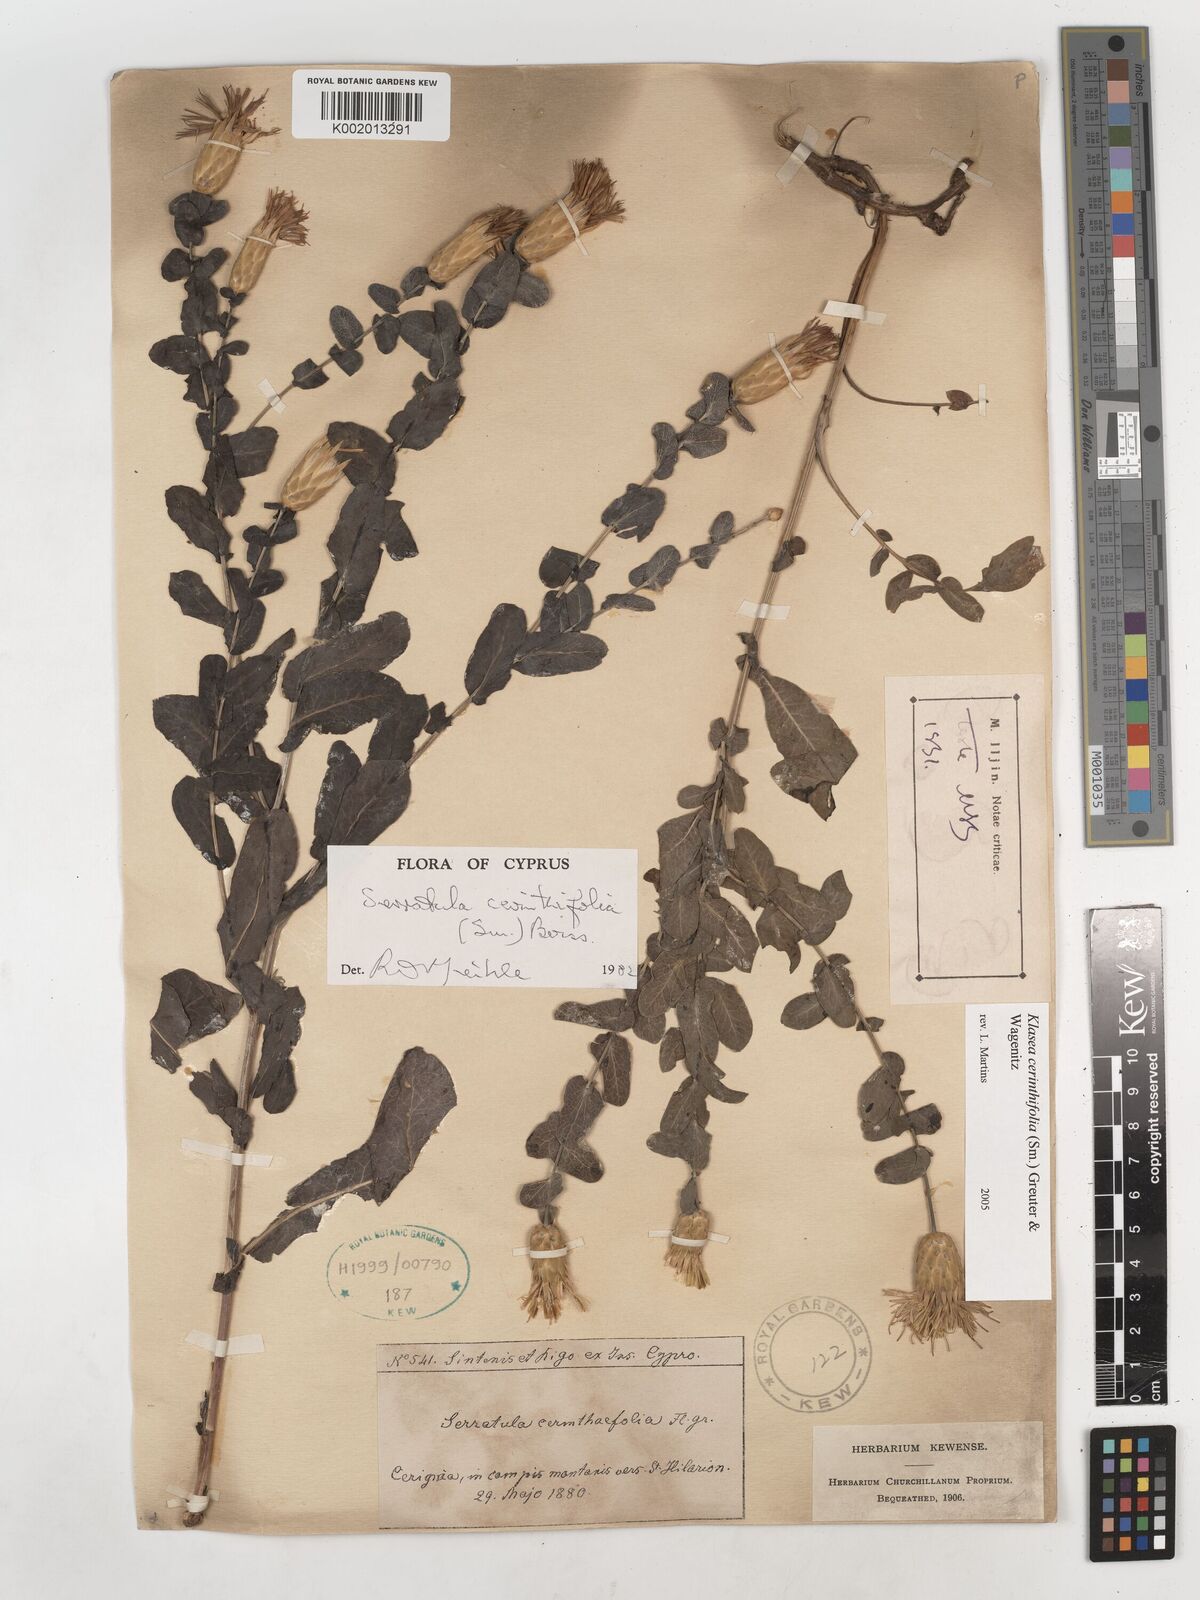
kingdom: Plantae
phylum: Tracheophyta
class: Magnoliopsida
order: Asterales
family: Asteraceae
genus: Klasea
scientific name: Klasea cerinthifolia
